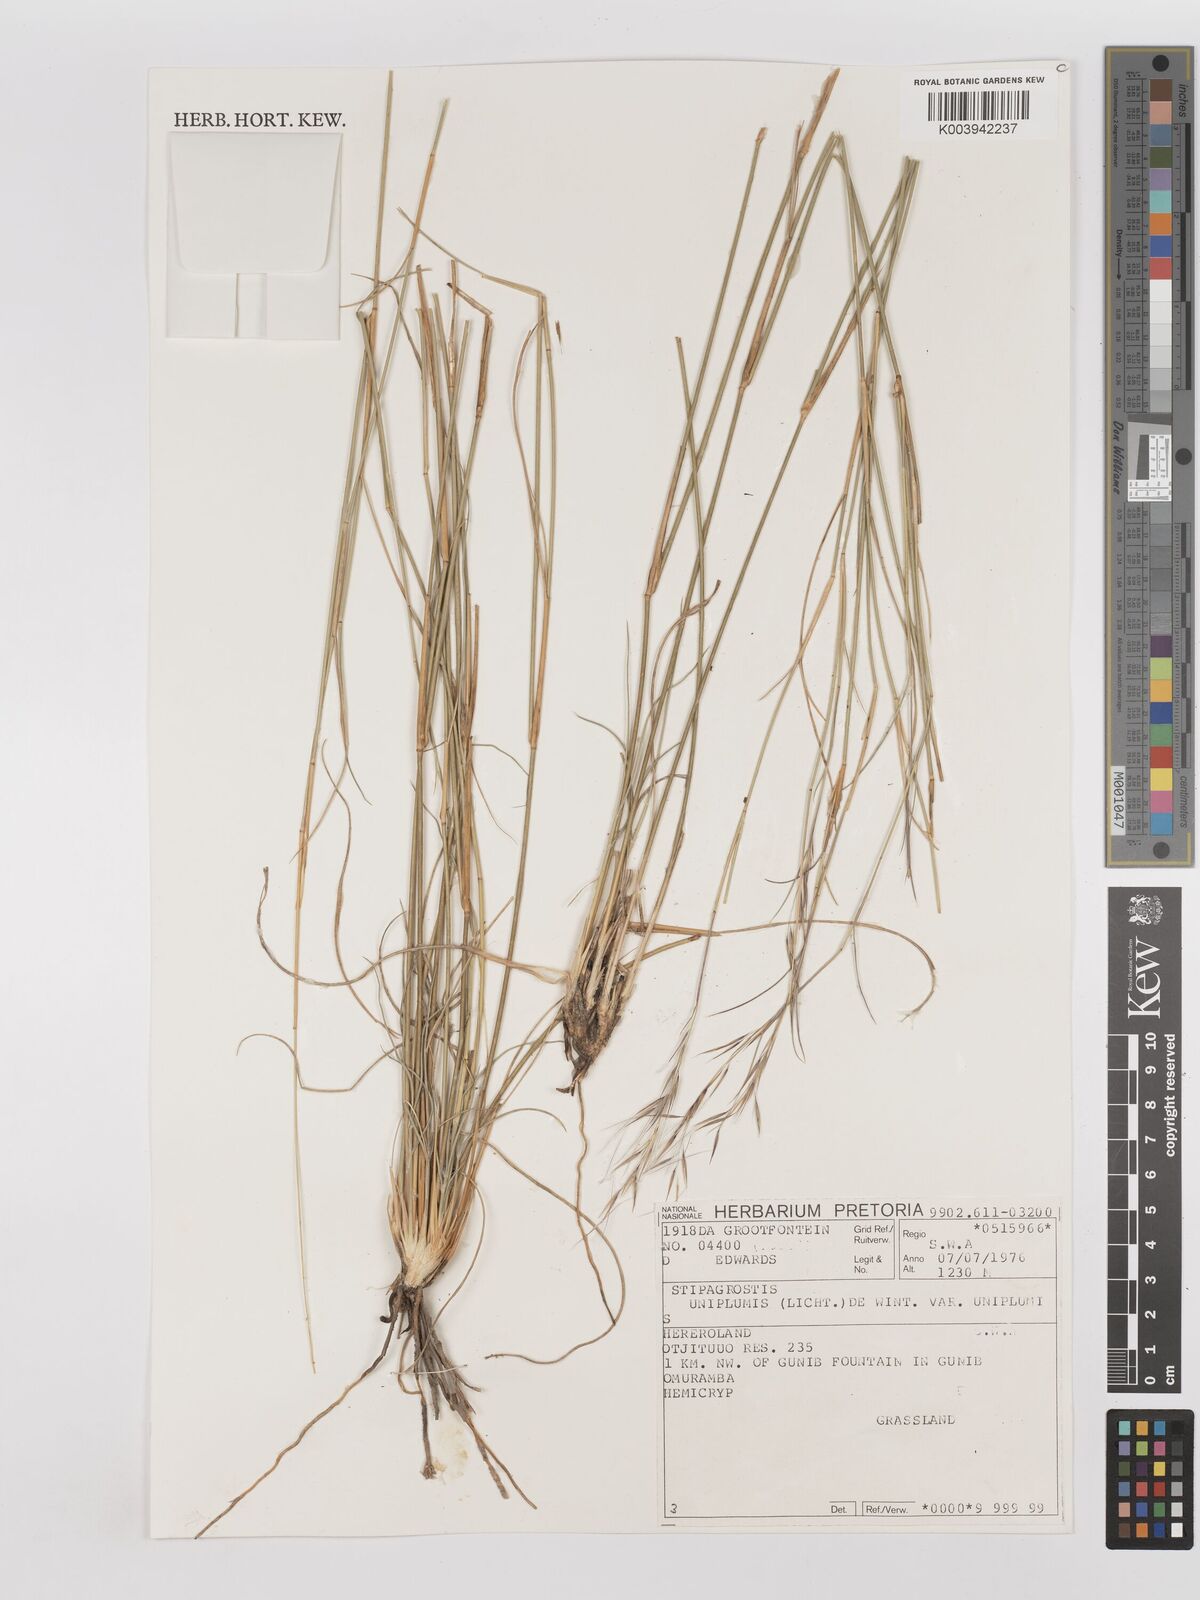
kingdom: Plantae
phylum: Tracheophyta
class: Liliopsida
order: Poales
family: Poaceae
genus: Stipagrostis
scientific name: Stipagrostis uniplumis
